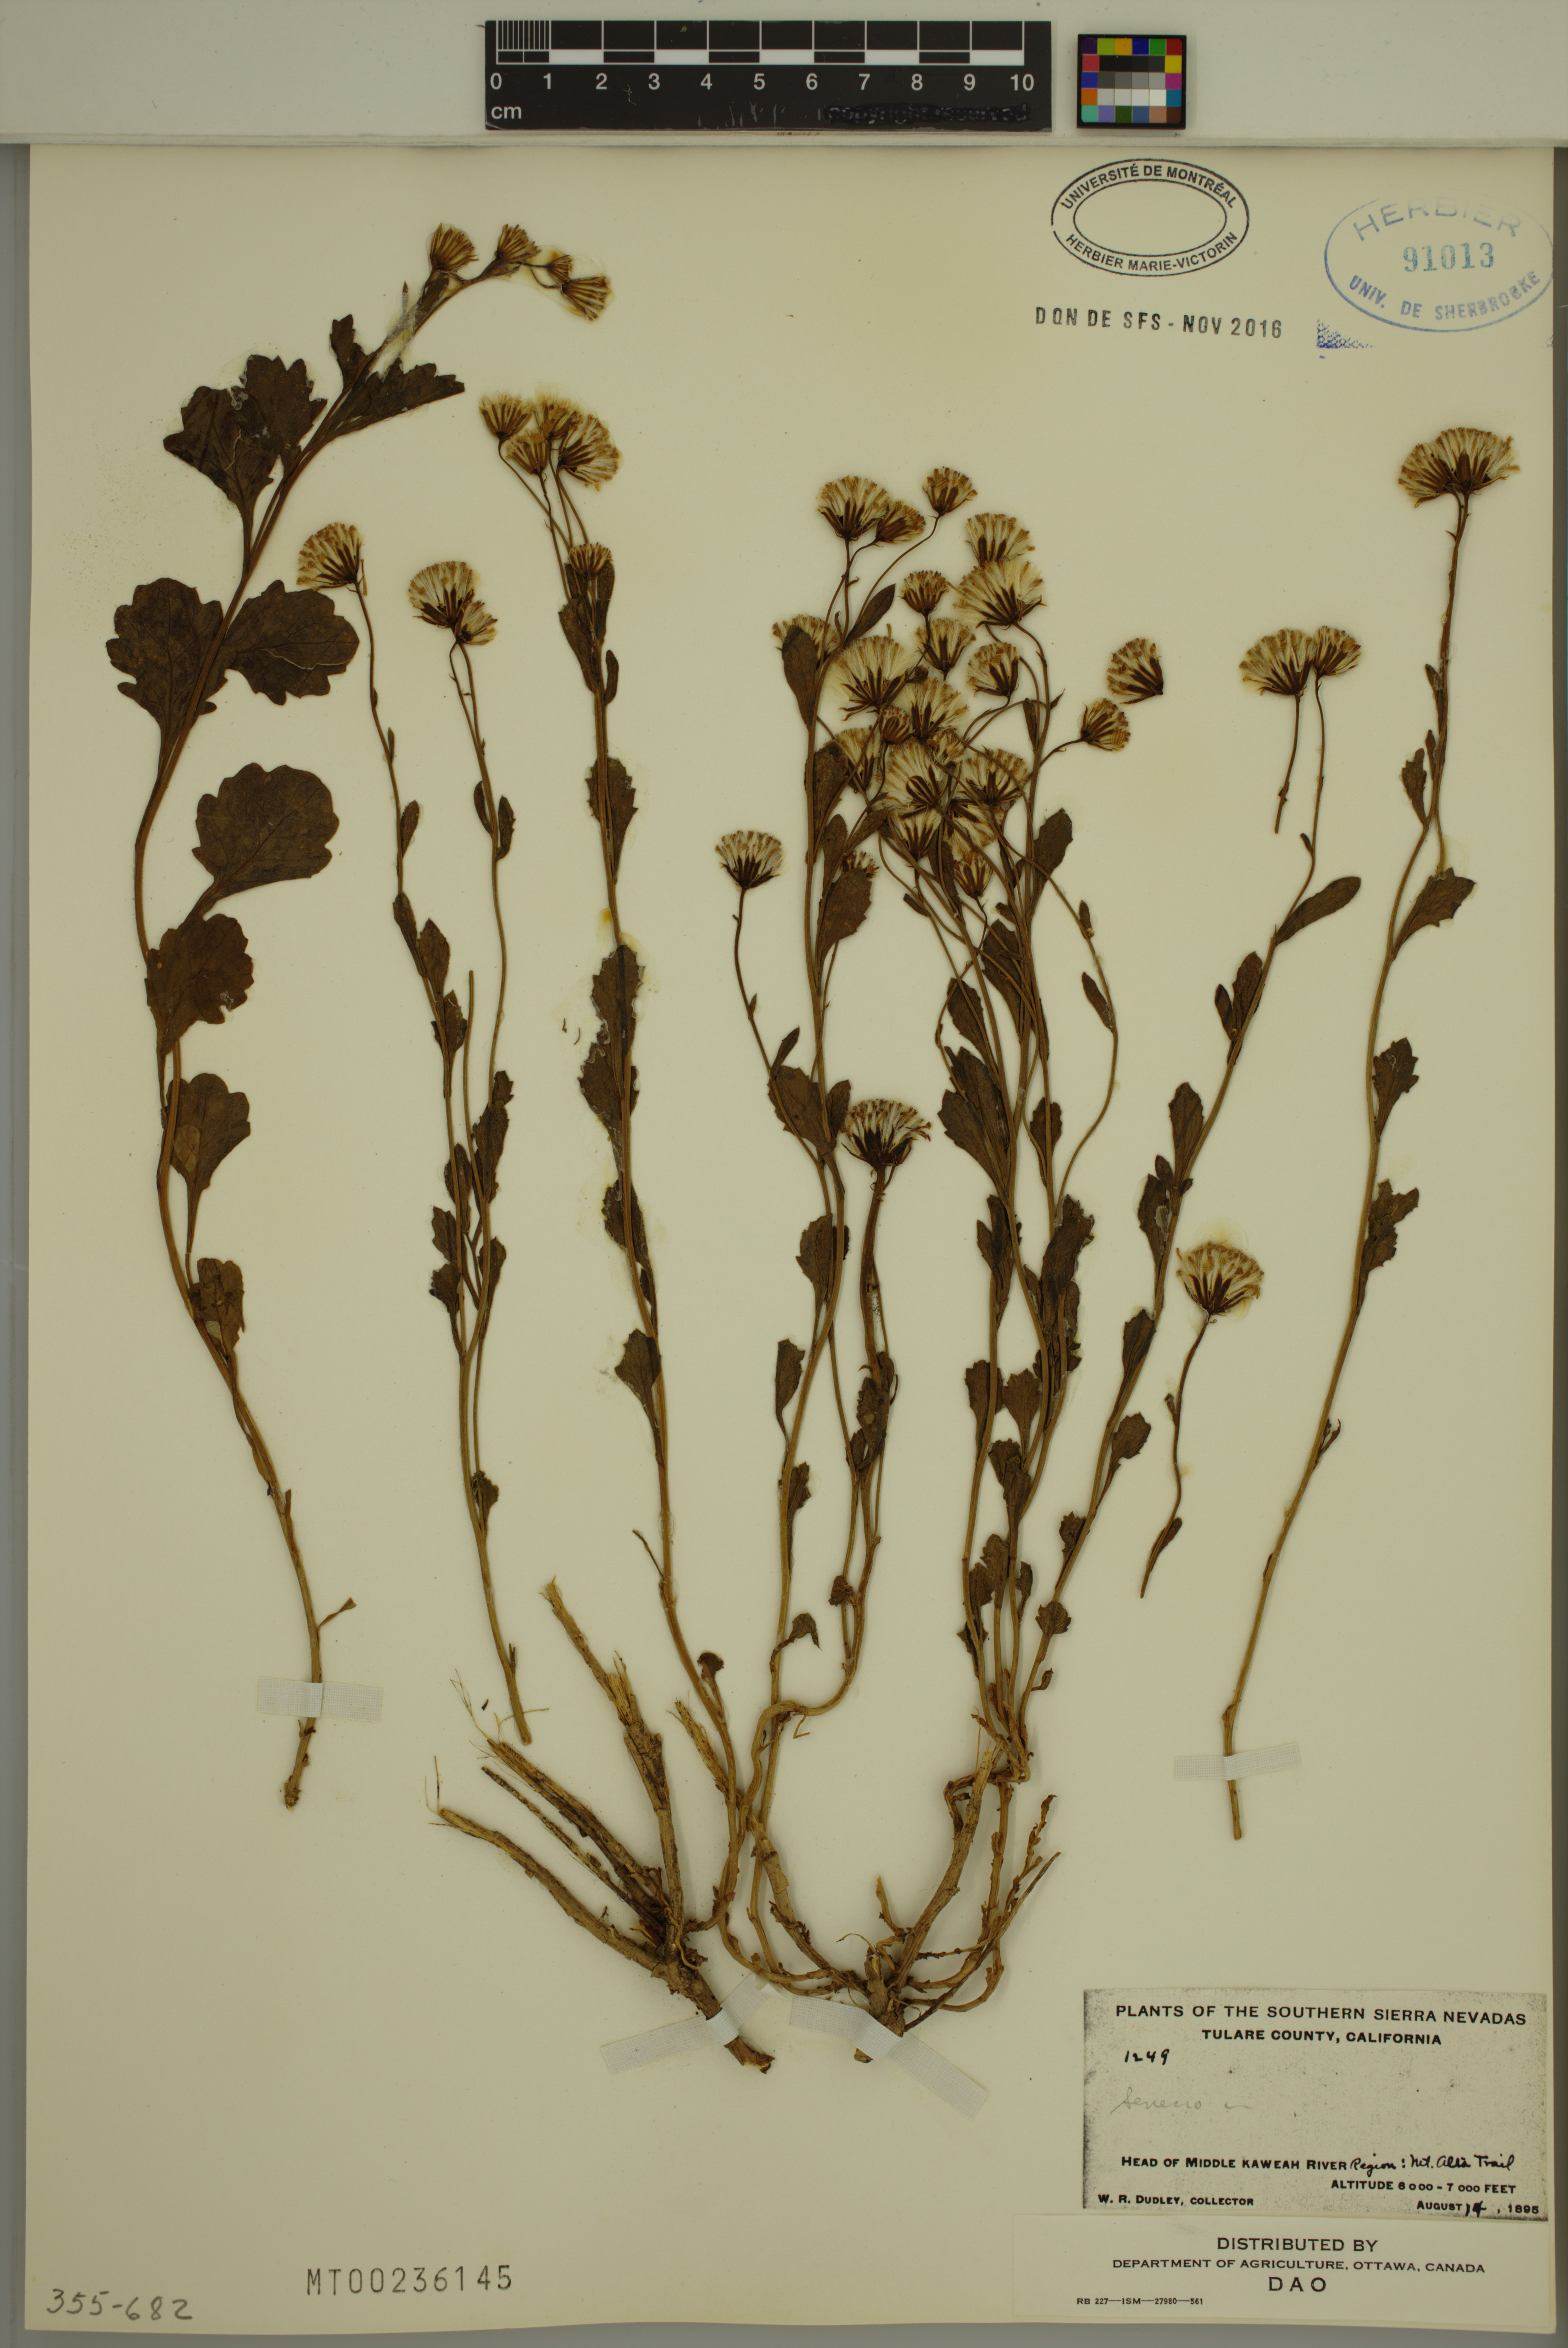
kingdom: Plantae
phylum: Tracheophyta
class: Magnoliopsida
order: Asterales
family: Asteraceae
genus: Senecio
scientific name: Senecio
